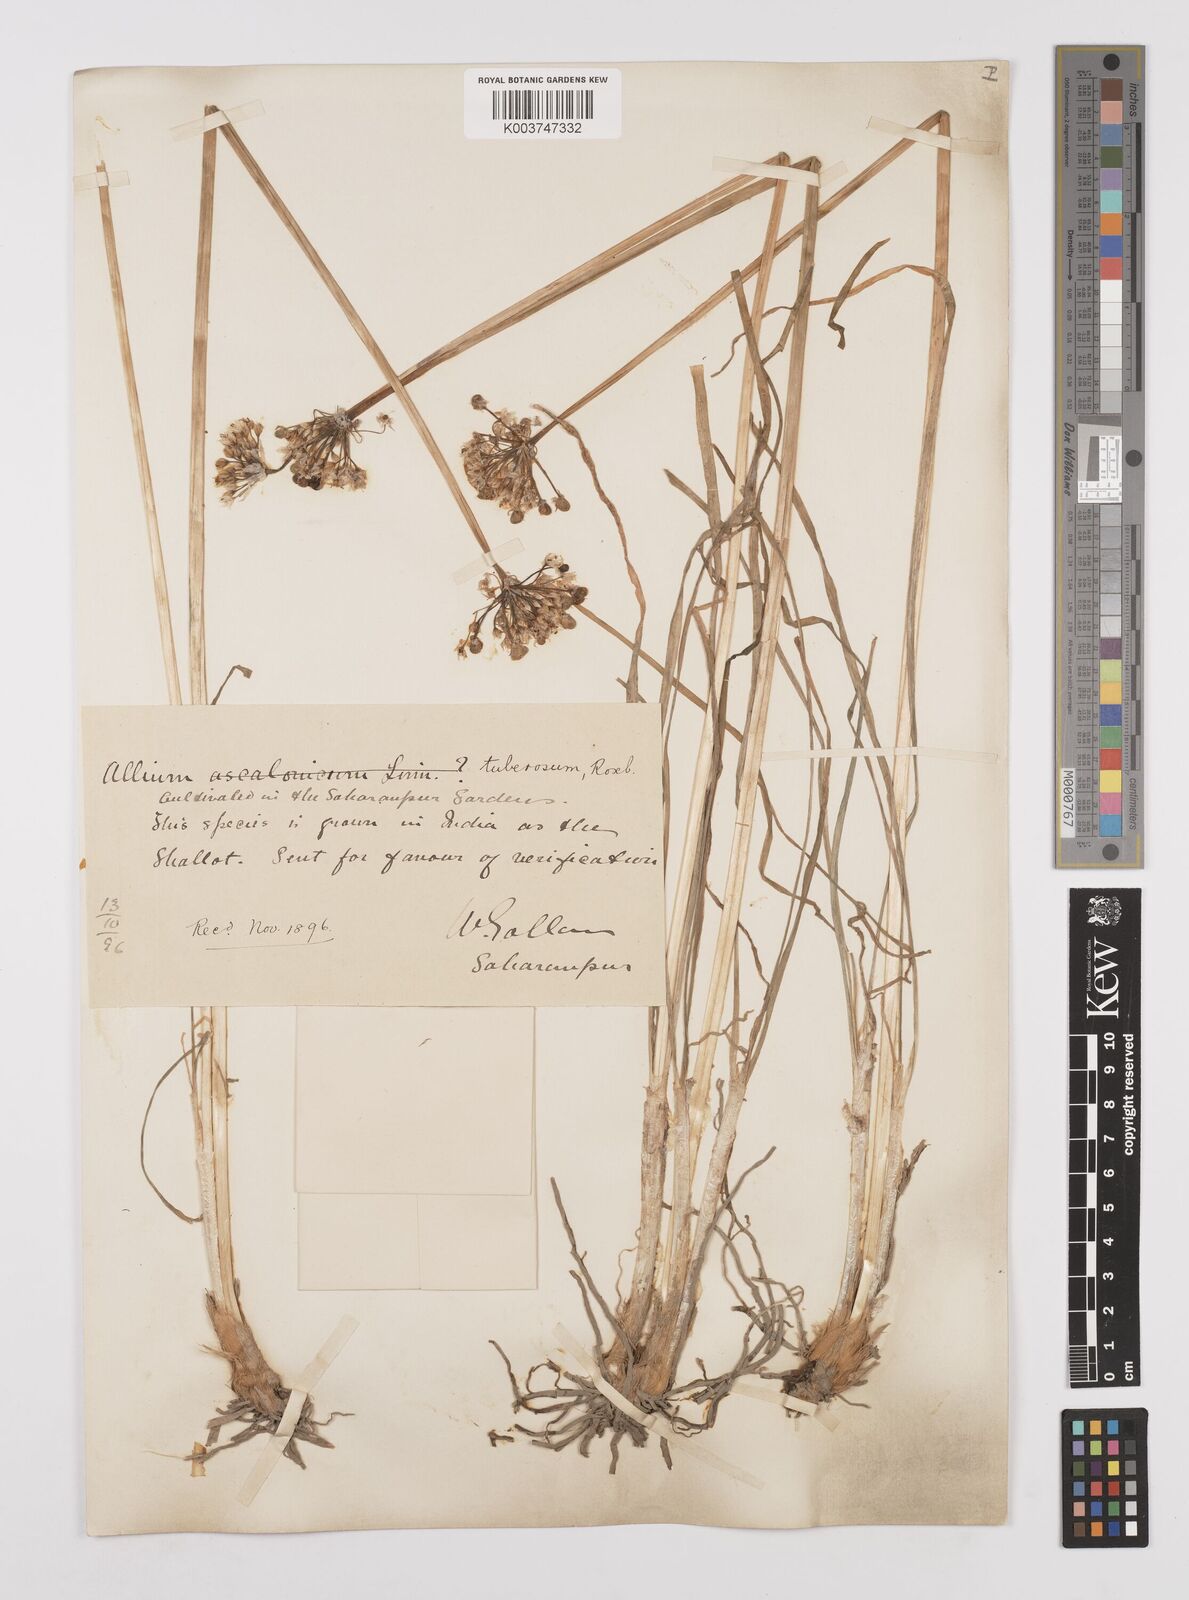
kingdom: Plantae
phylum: Tracheophyta
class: Liliopsida
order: Asparagales
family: Amaryllidaceae
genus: Allium
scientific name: Allium tuberosum
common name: Chinese chives
